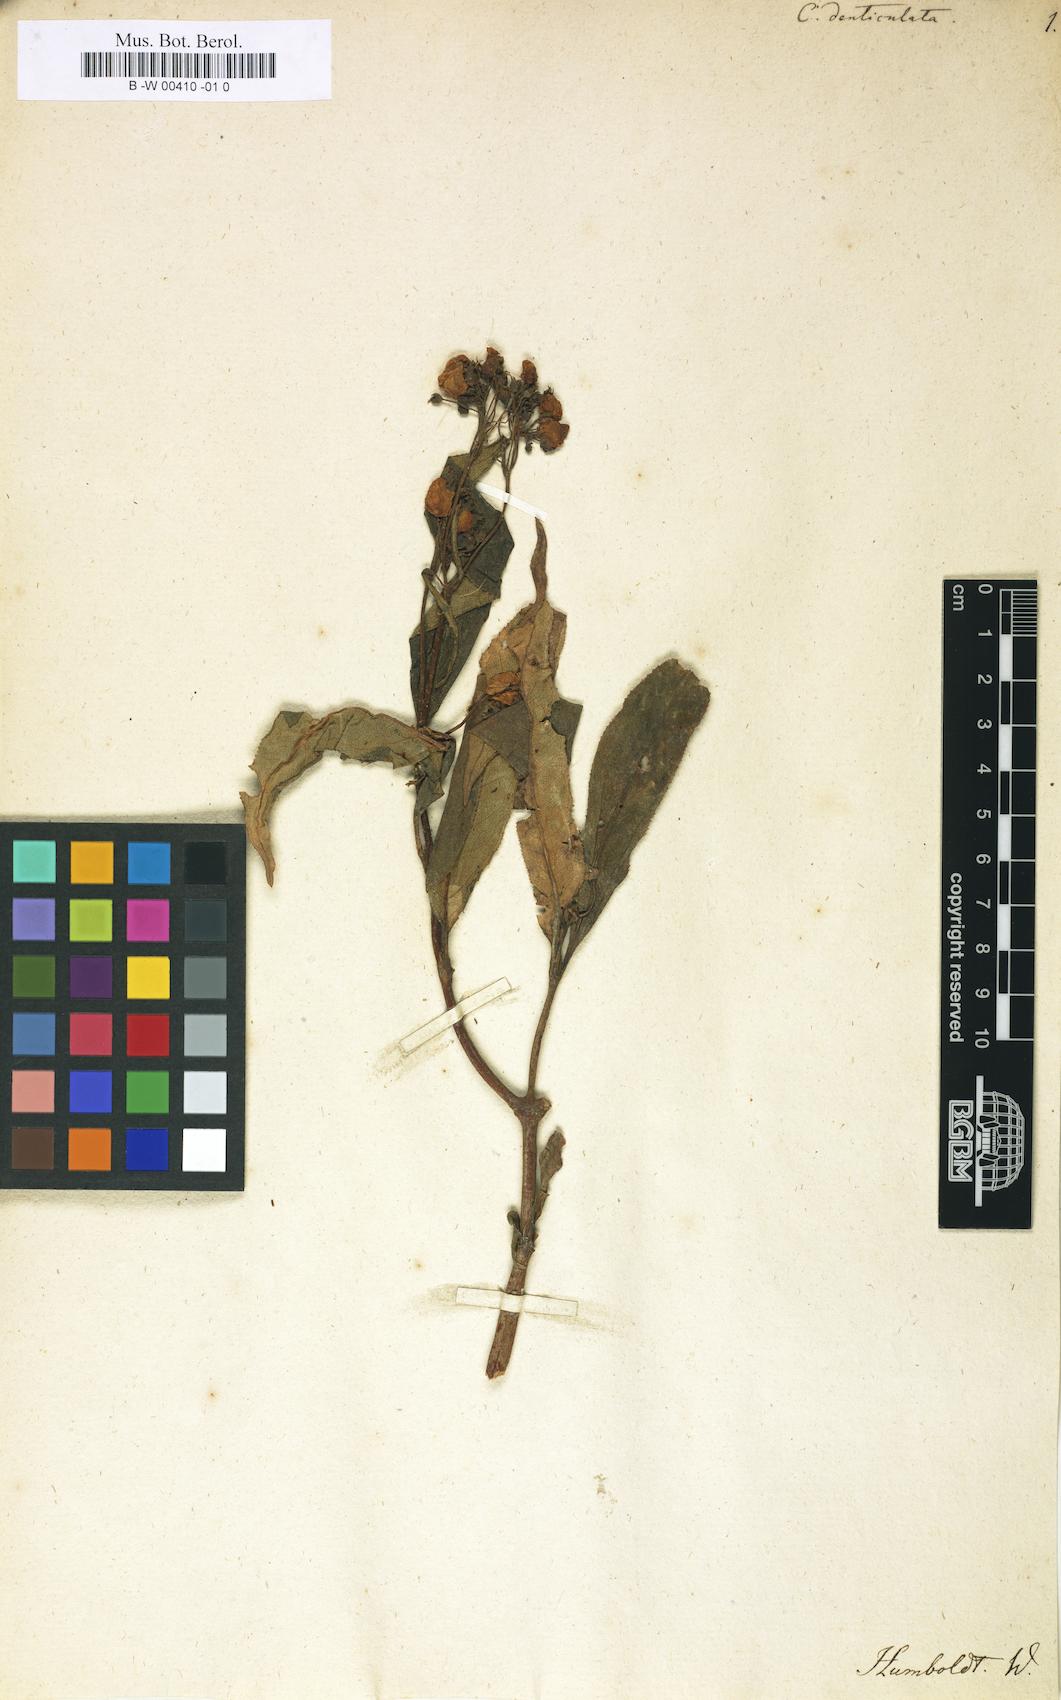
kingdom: Plantae
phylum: Tracheophyta
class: Magnoliopsida
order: Lamiales
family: Calceolariaceae
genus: Calceolaria
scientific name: Calceolaria stricta
